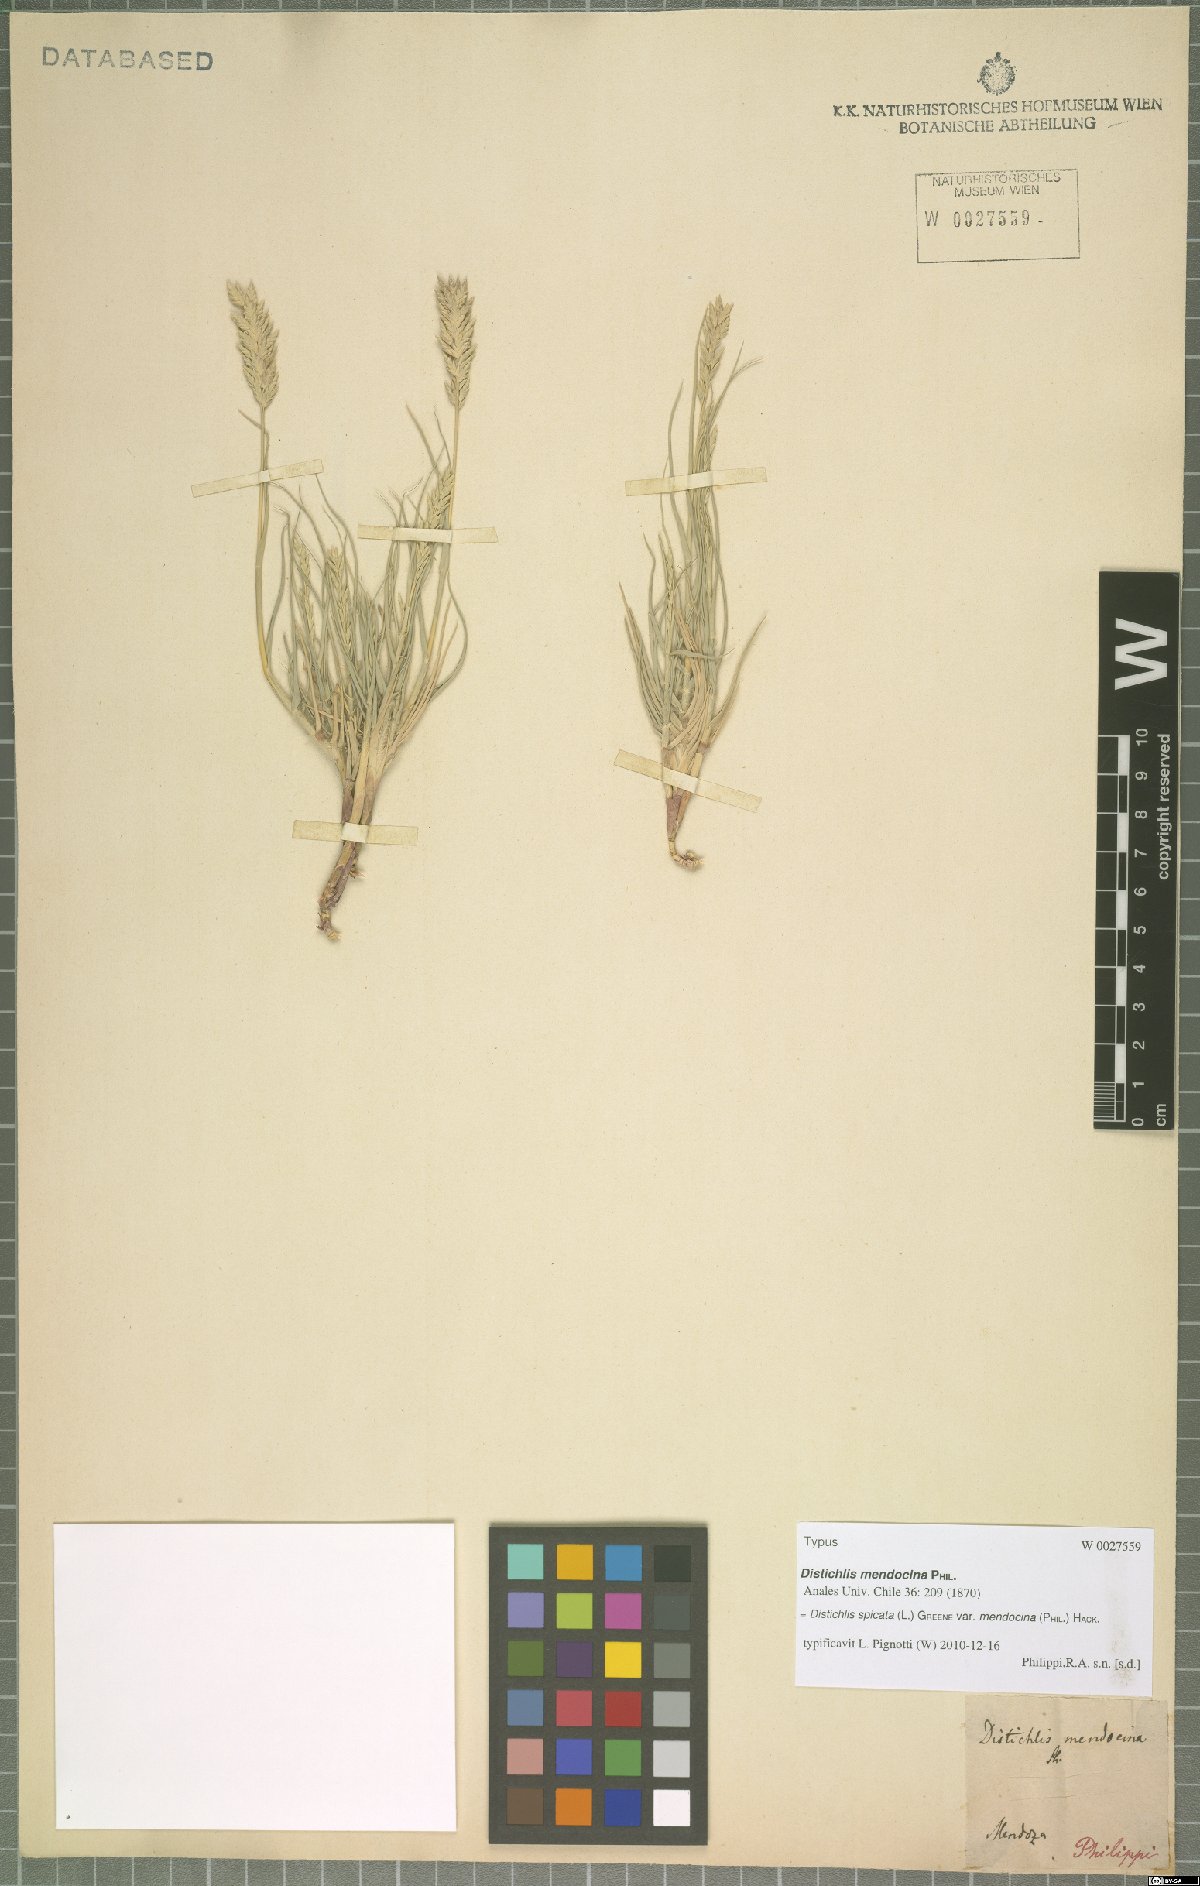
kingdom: Plantae
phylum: Tracheophyta
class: Liliopsida
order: Poales
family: Poaceae
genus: Distichlis
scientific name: Distichlis spicata
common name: Saltgrass
